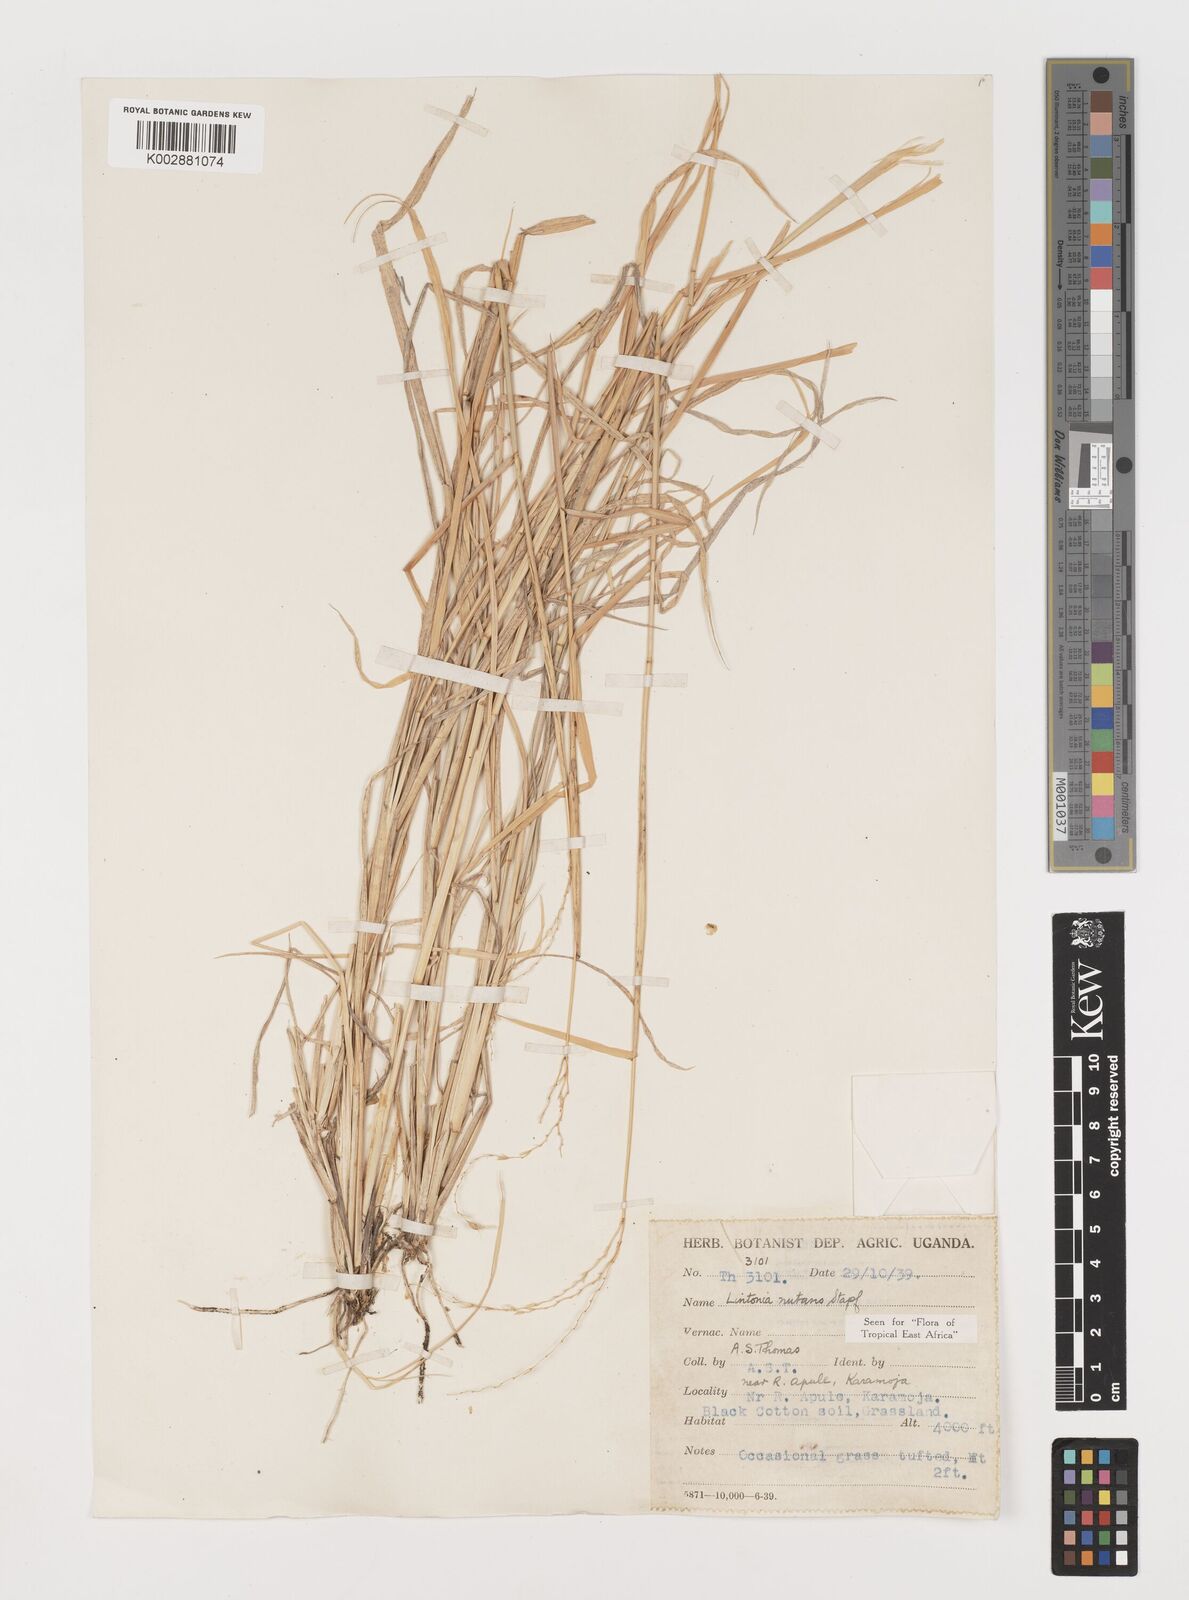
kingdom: Plantae
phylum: Tracheophyta
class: Liliopsida
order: Poales
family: Poaceae
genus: Chloris
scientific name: Chloris nutans
